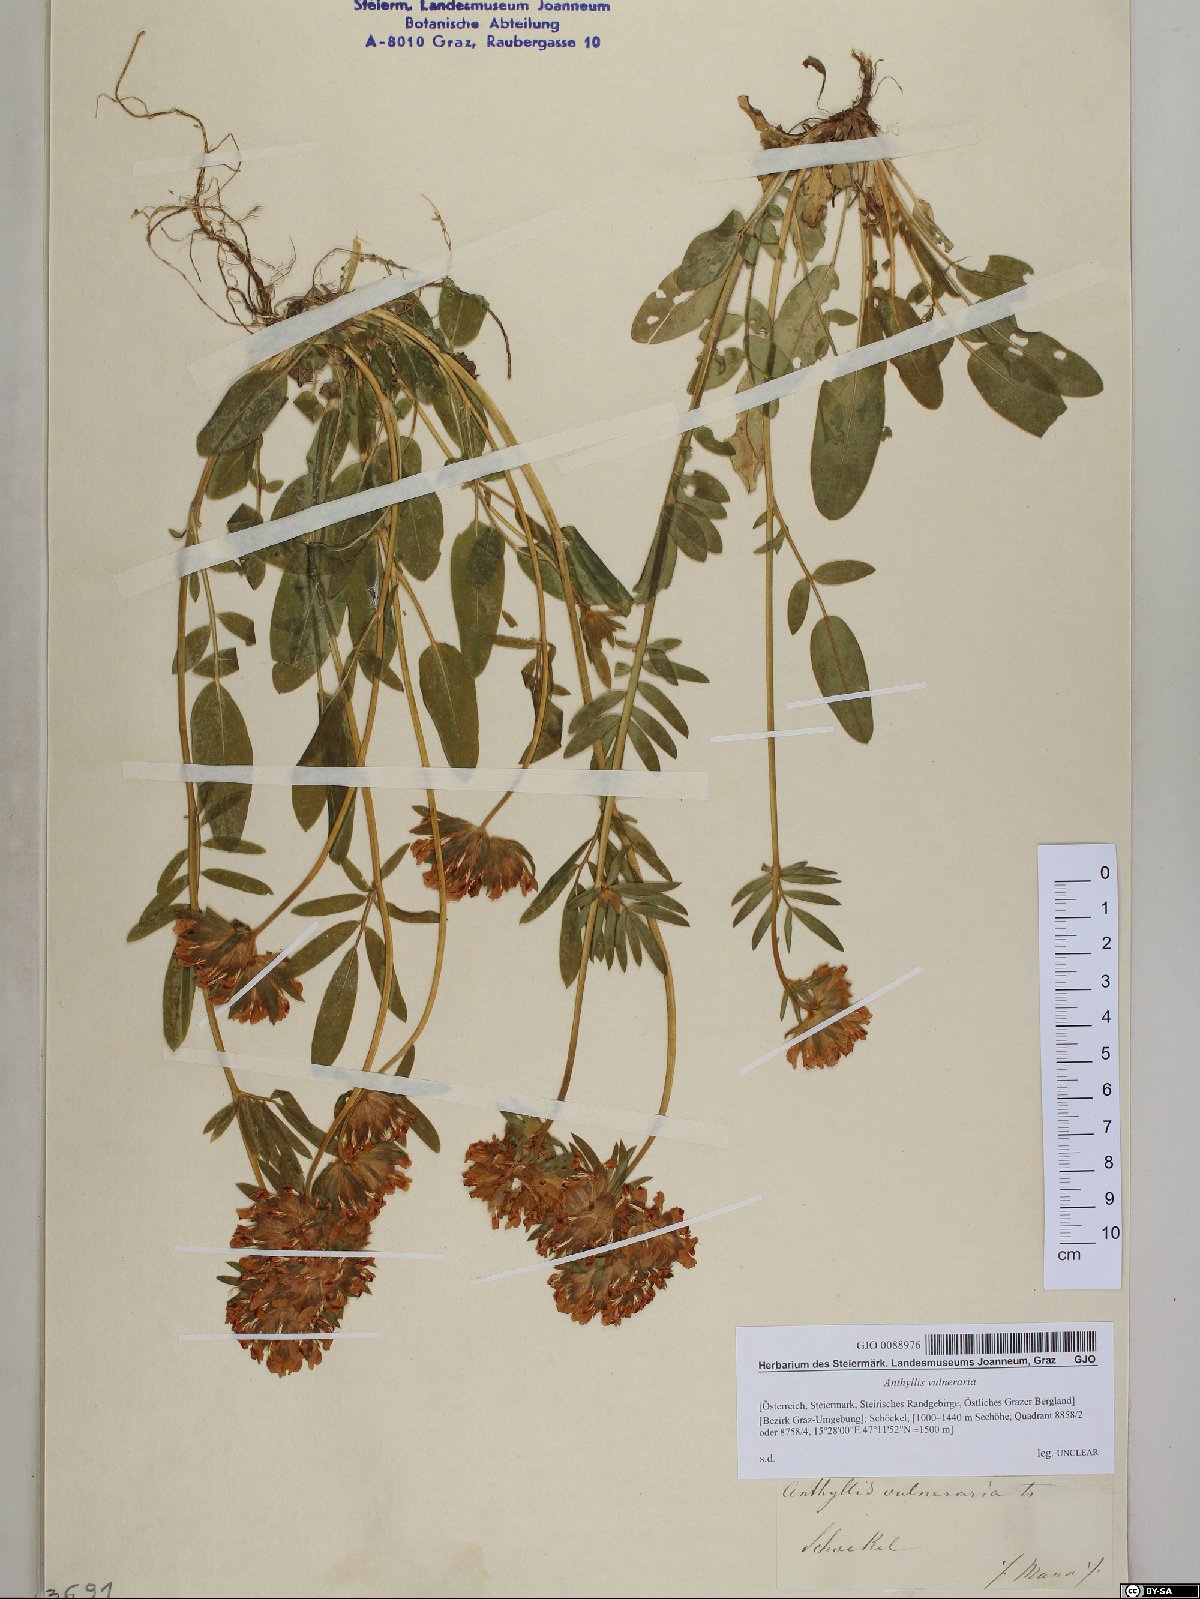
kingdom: Plantae
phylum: Tracheophyta
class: Magnoliopsida
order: Fabales
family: Fabaceae
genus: Anthyllis
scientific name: Anthyllis vulneraria
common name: Kidney vetch
